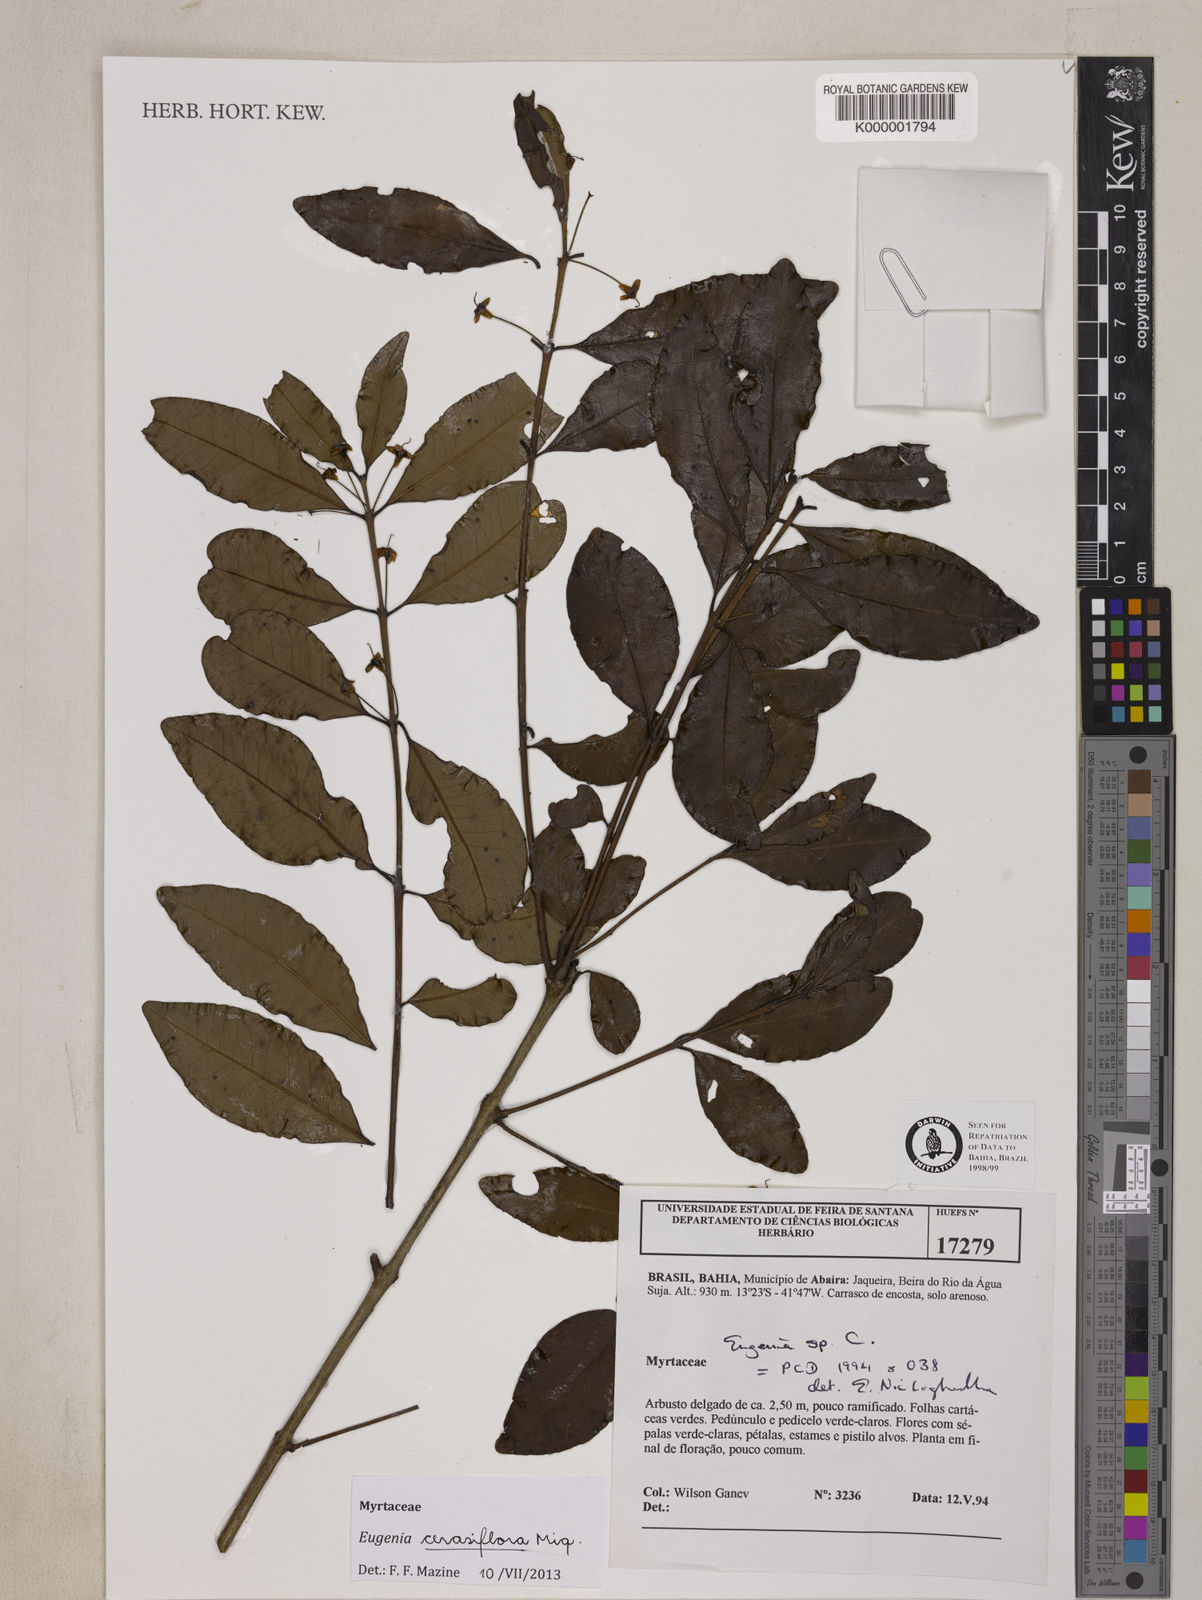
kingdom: Plantae
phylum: Tracheophyta
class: Magnoliopsida
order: Myrtales
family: Myrtaceae
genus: Eugenia
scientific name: Eugenia
